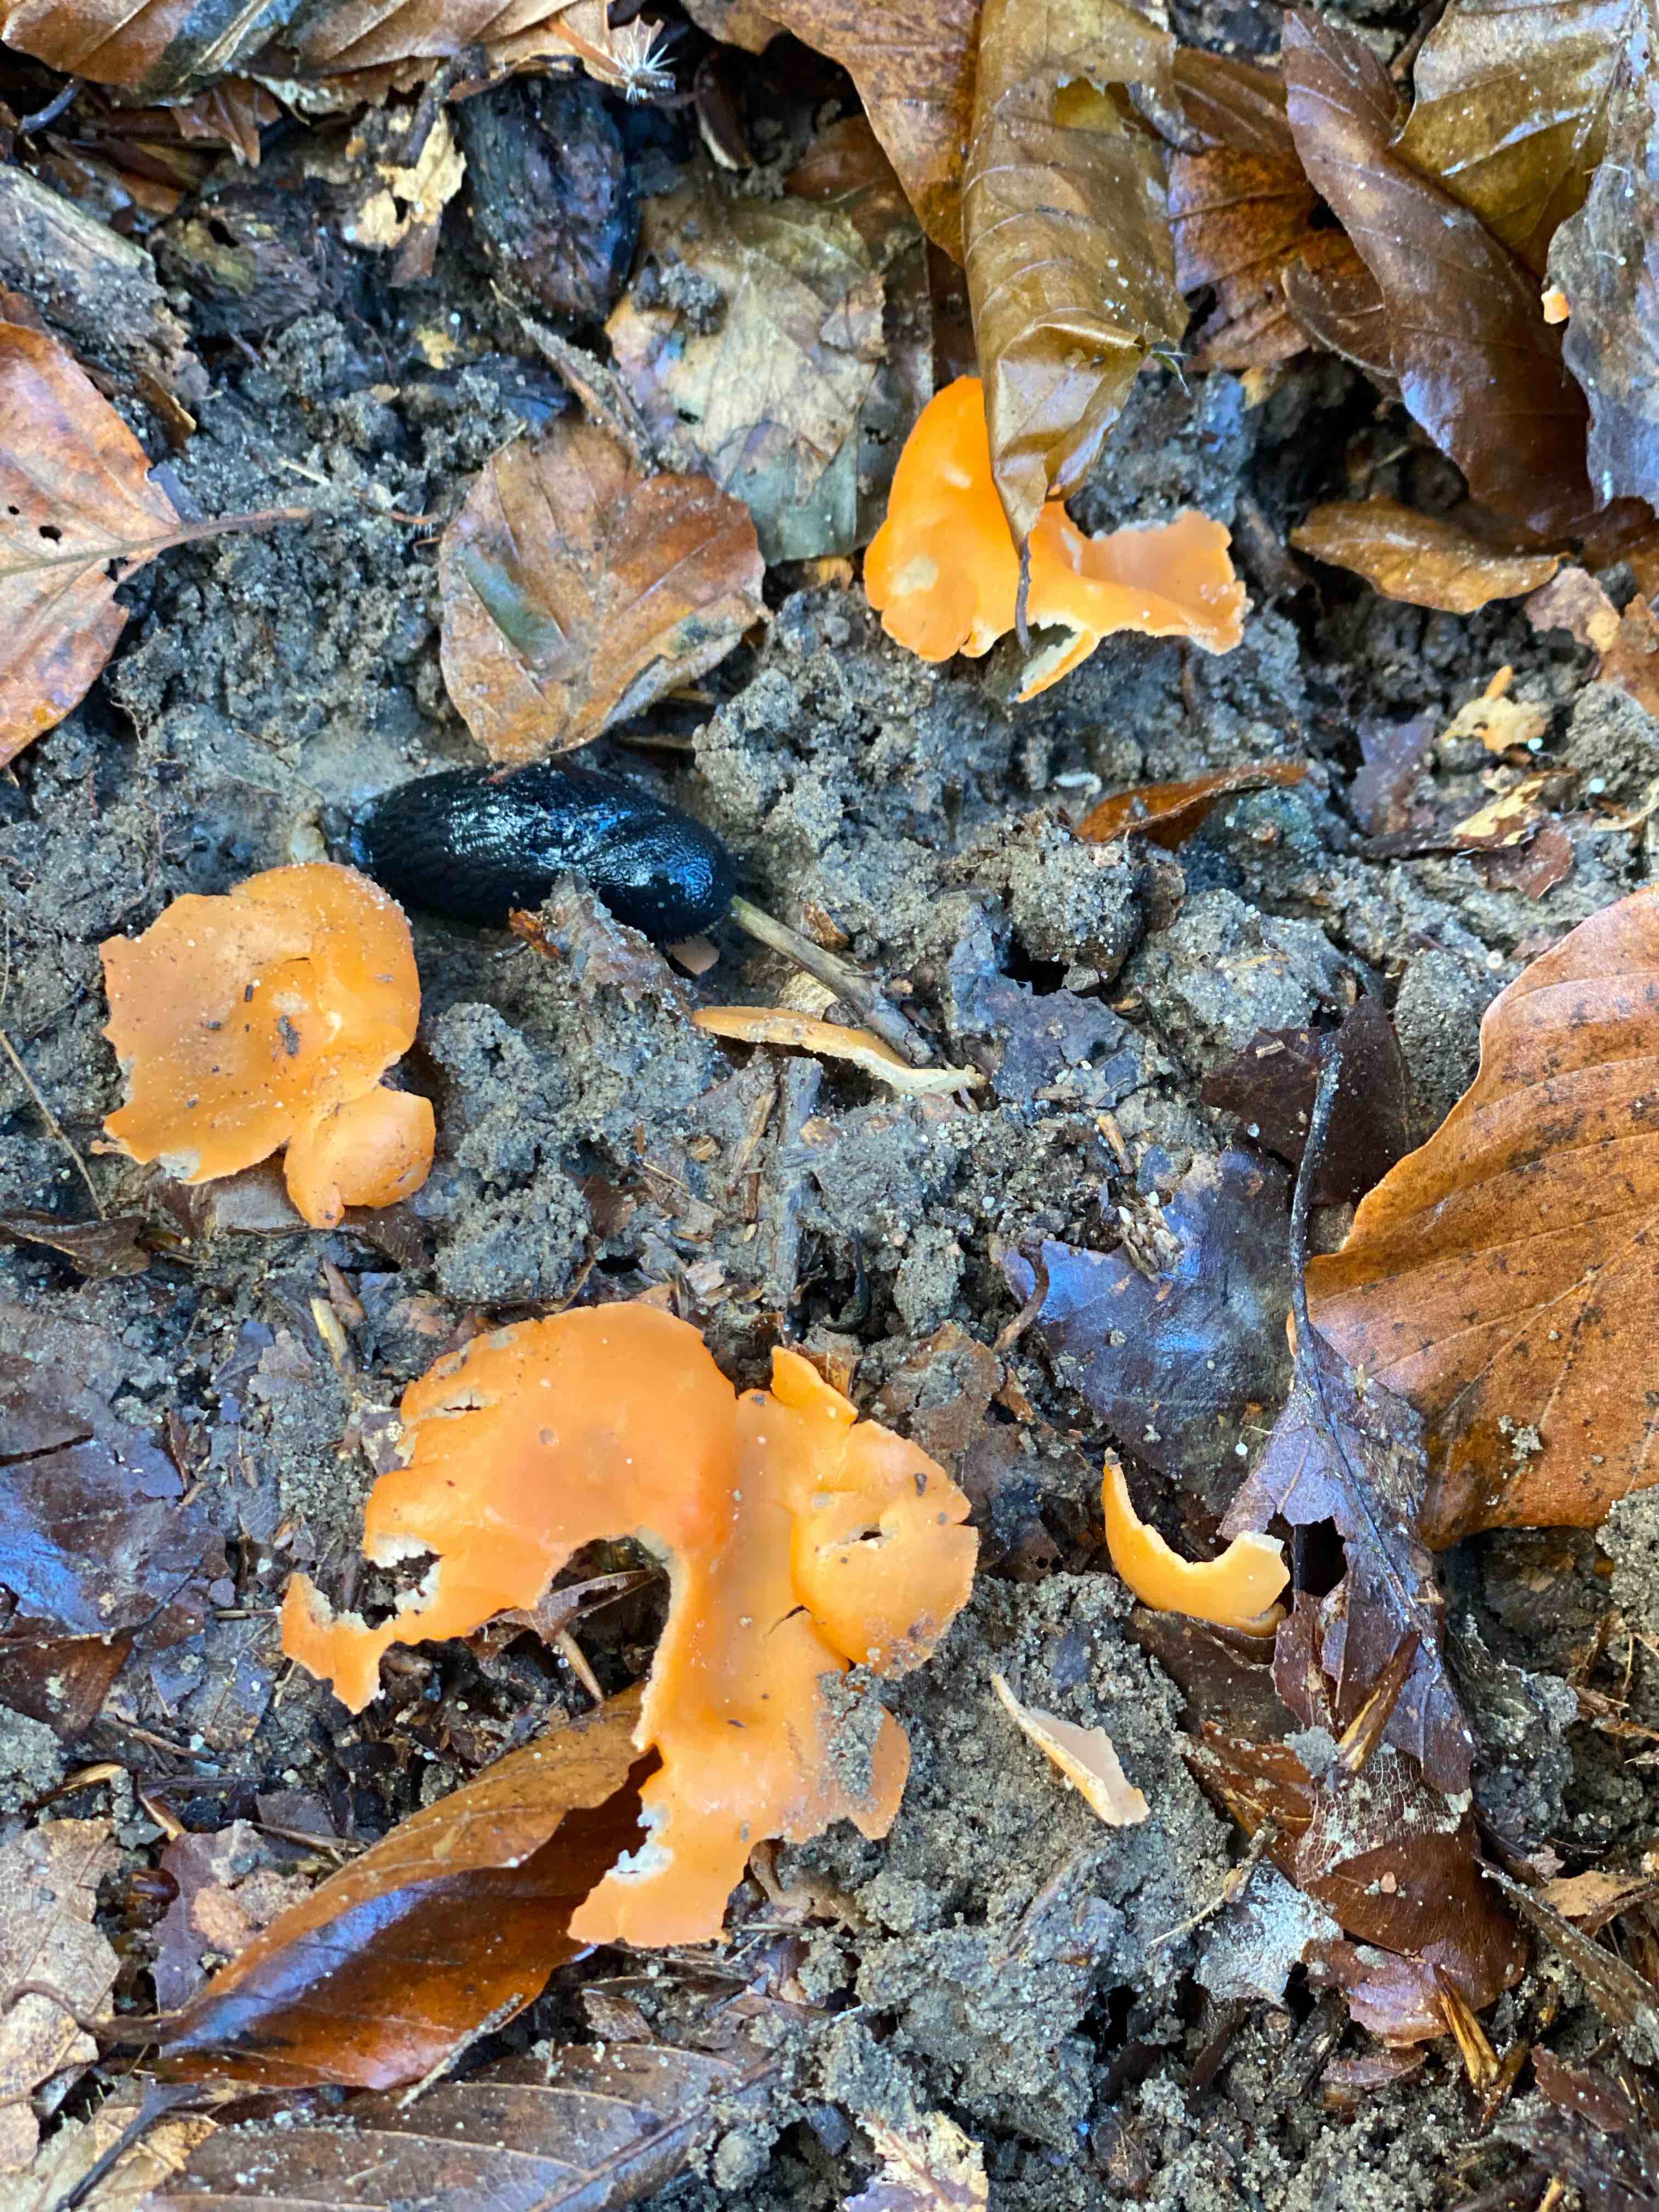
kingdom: Fungi
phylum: Ascomycota
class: Pezizomycetes
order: Pezizales
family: Pyronemataceae
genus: Aleuria
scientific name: Aleuria aurantia
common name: almindelig orangebæger
